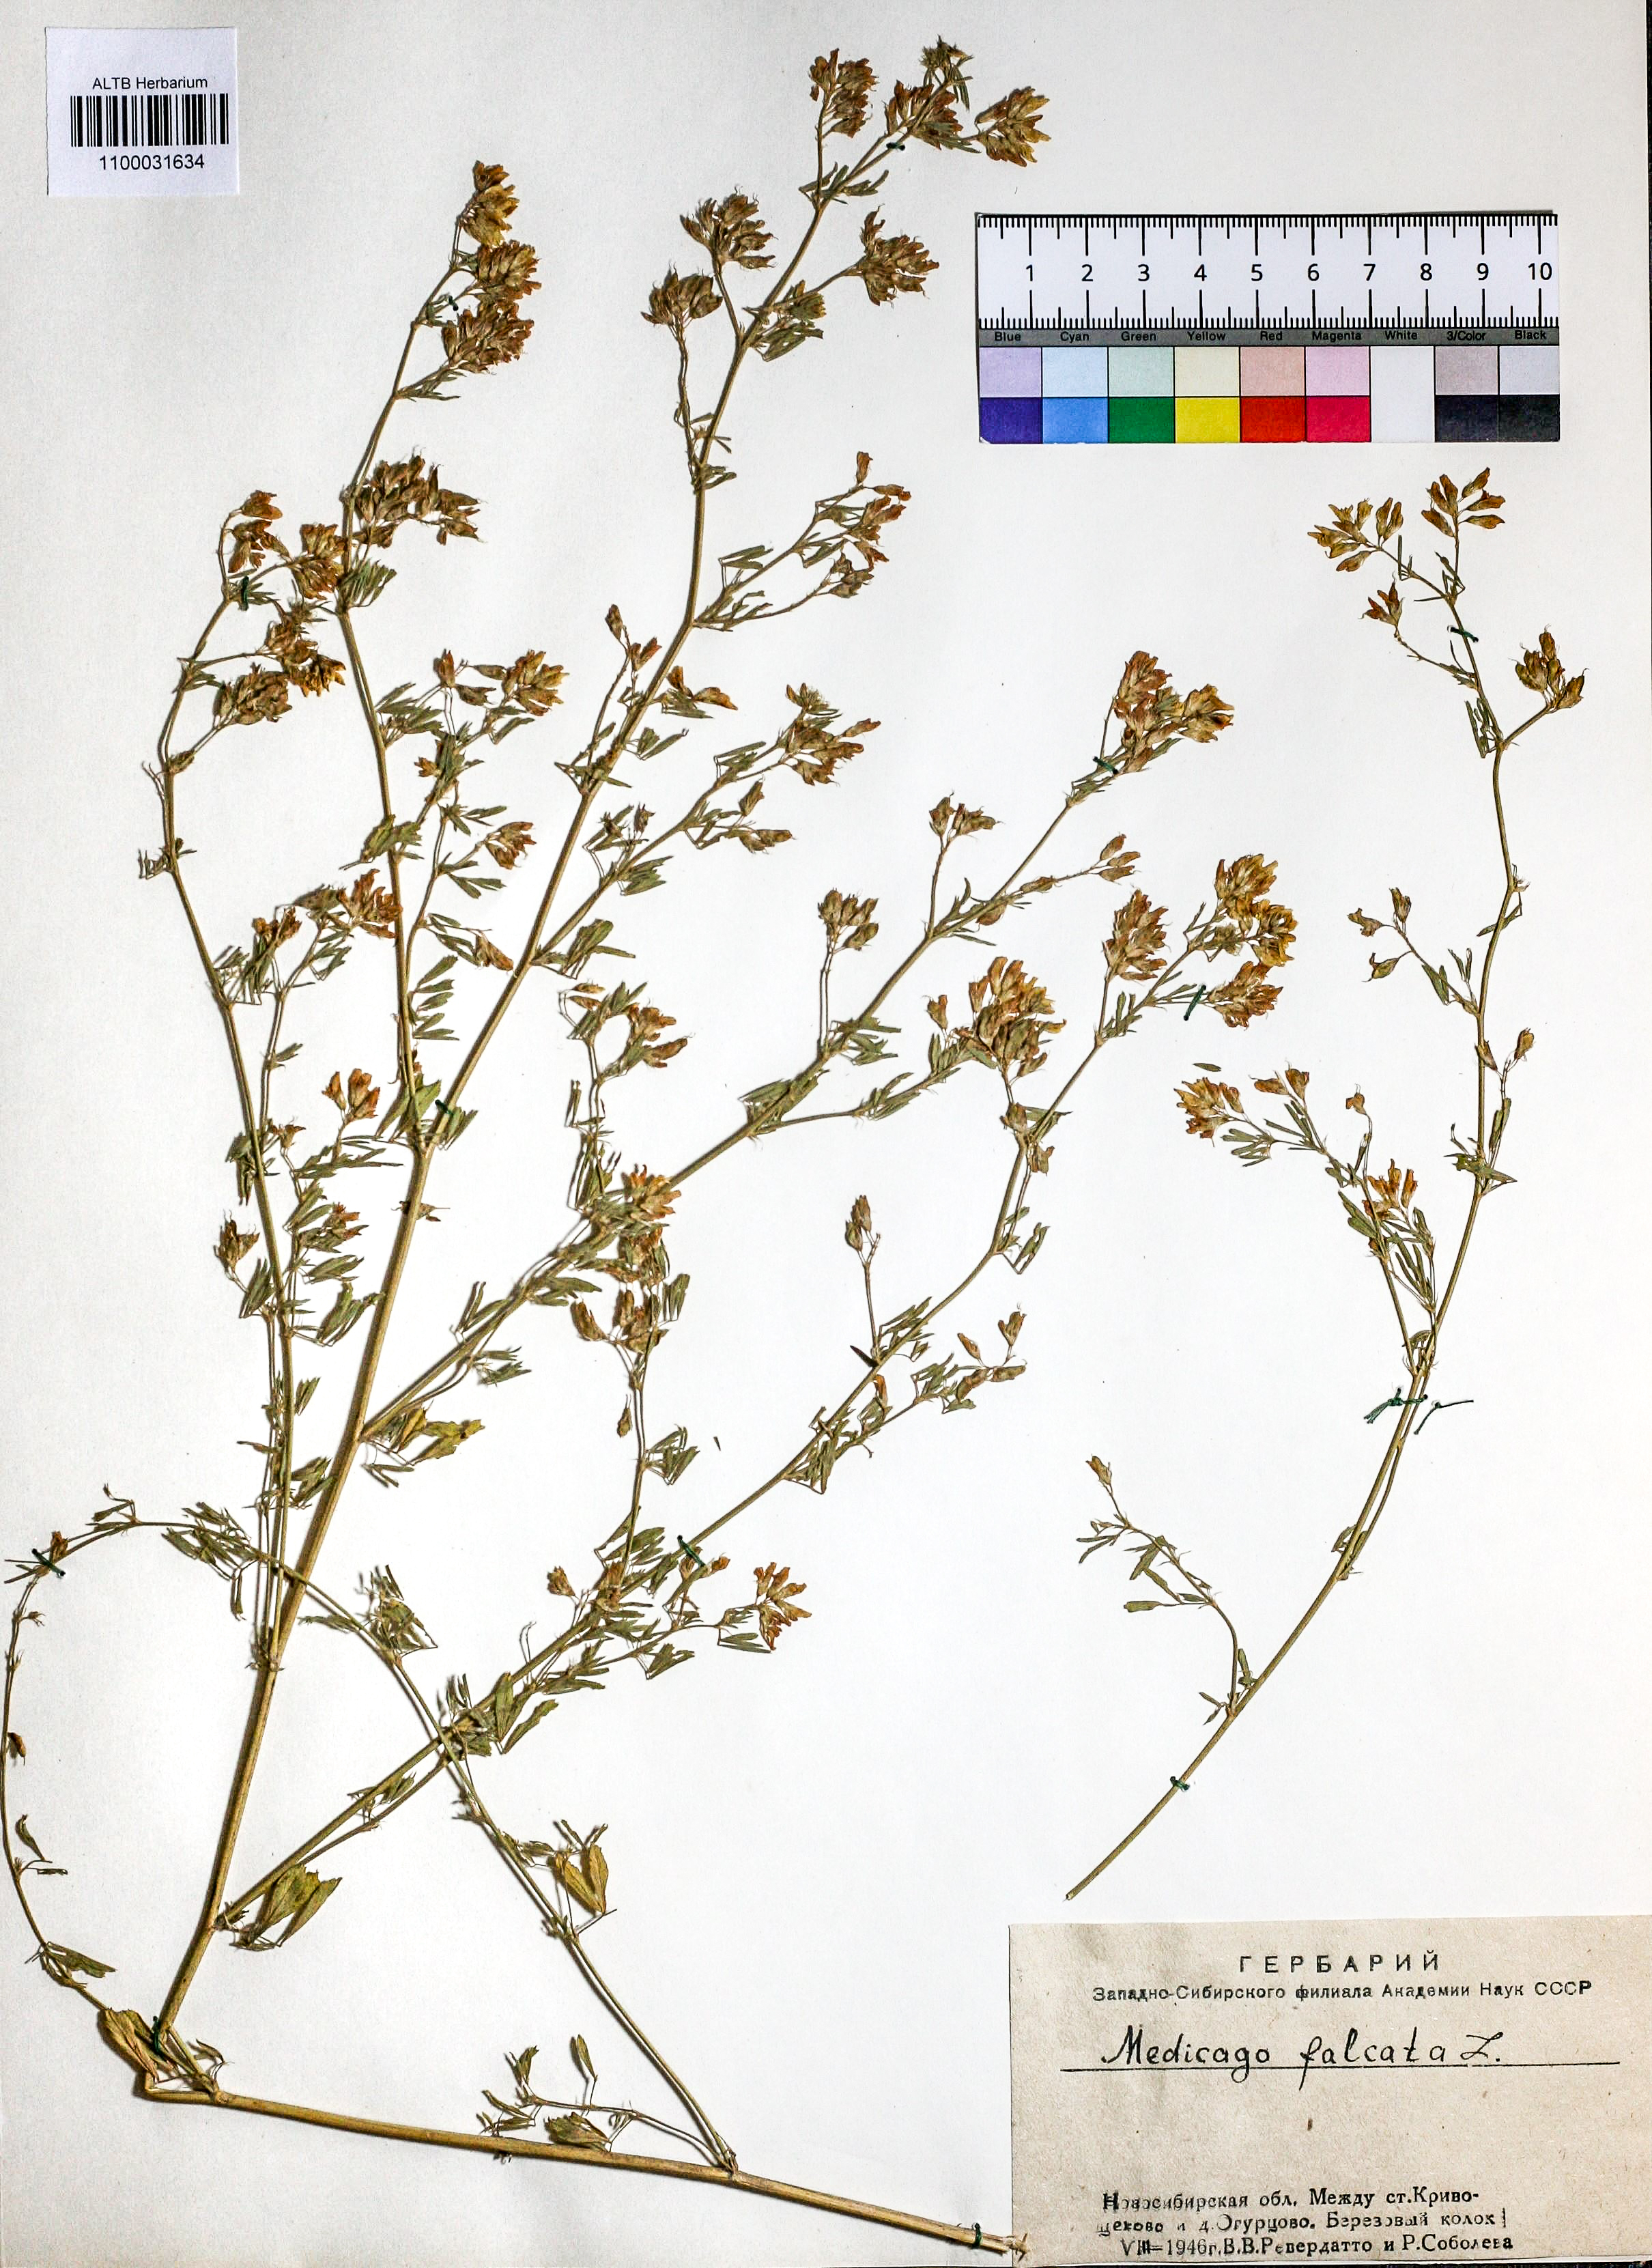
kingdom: Plantae
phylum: Tracheophyta
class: Magnoliopsida
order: Fabales
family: Fabaceae
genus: Medicago
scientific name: Medicago falcata
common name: Sickle medick
